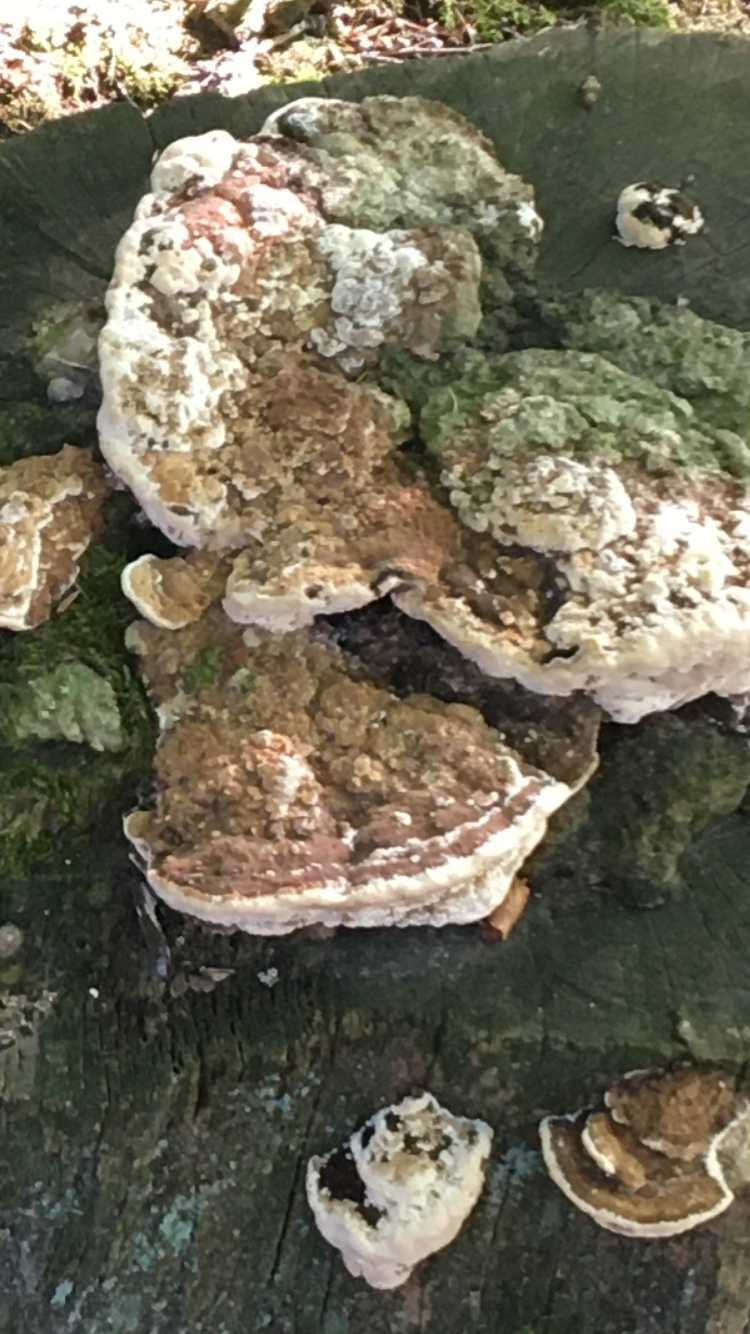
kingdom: Fungi
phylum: Basidiomycota
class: Agaricomycetes
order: Polyporales
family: Fomitopsidaceae
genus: Daedalea
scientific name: Daedalea quercina
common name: ege-labyrintsvamp
